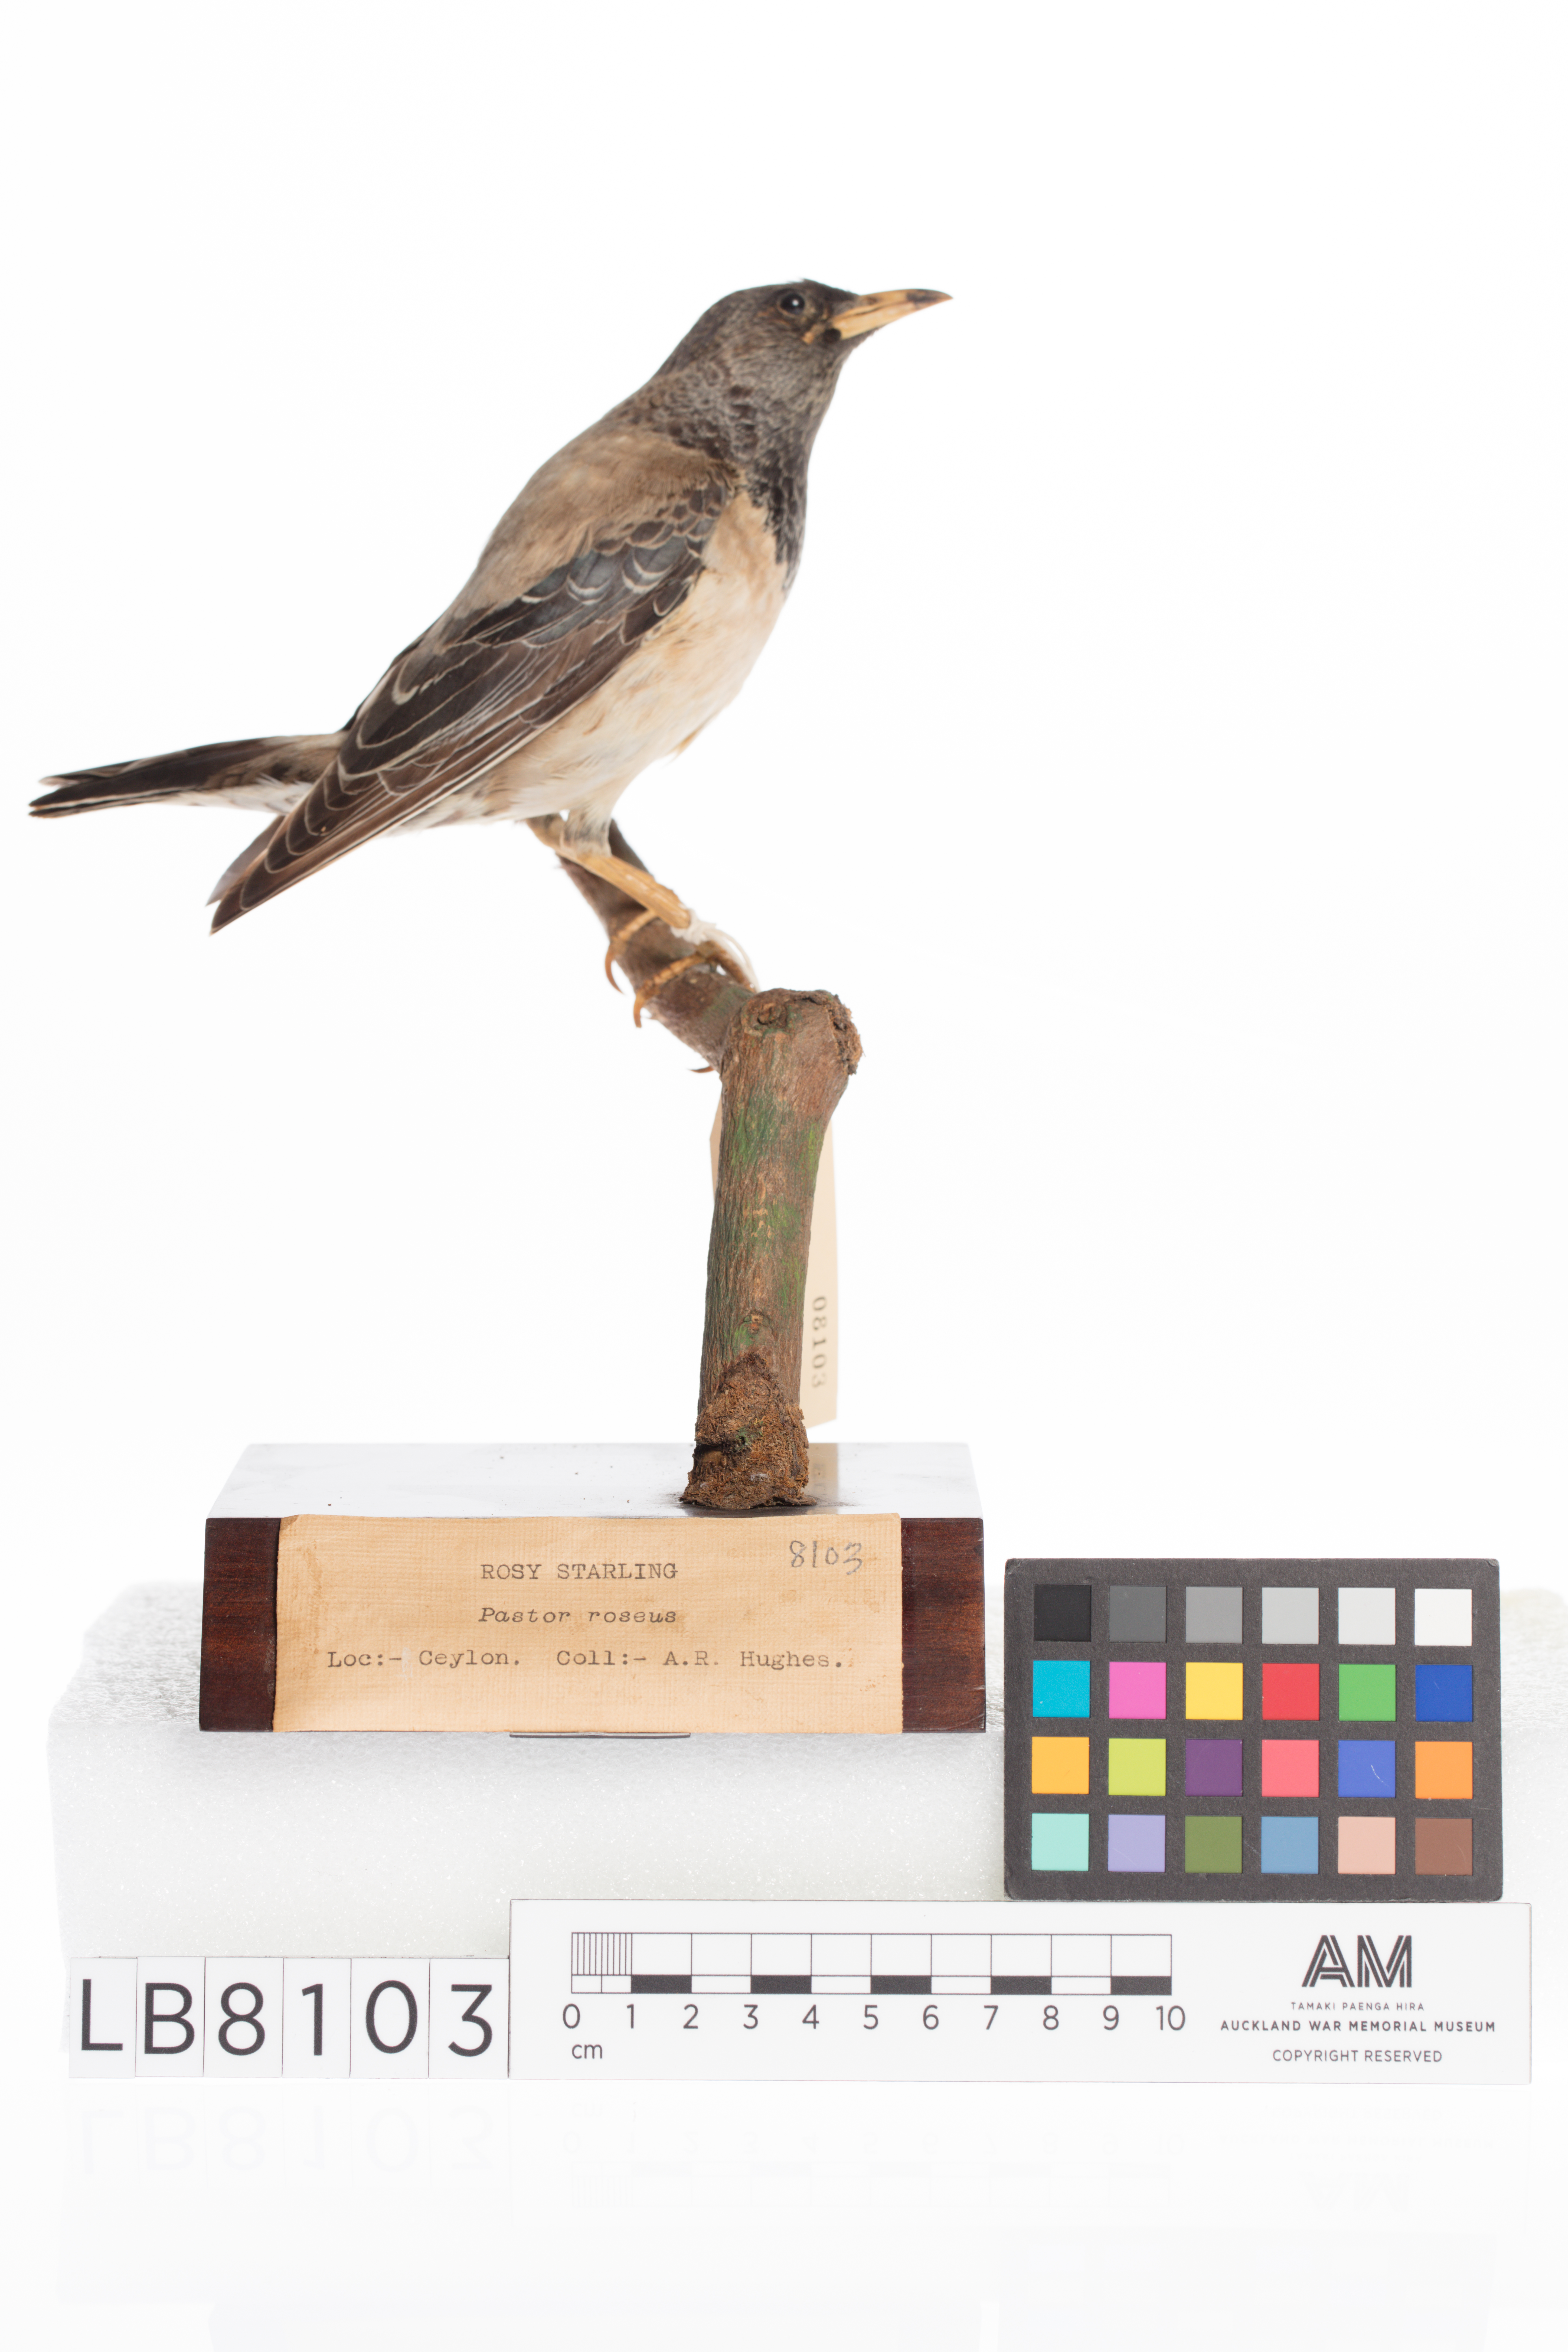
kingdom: Animalia
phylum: Chordata
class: Aves
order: Passeriformes
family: Sturnidae
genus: Pastor
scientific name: Pastor roseus
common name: Rosy starling
